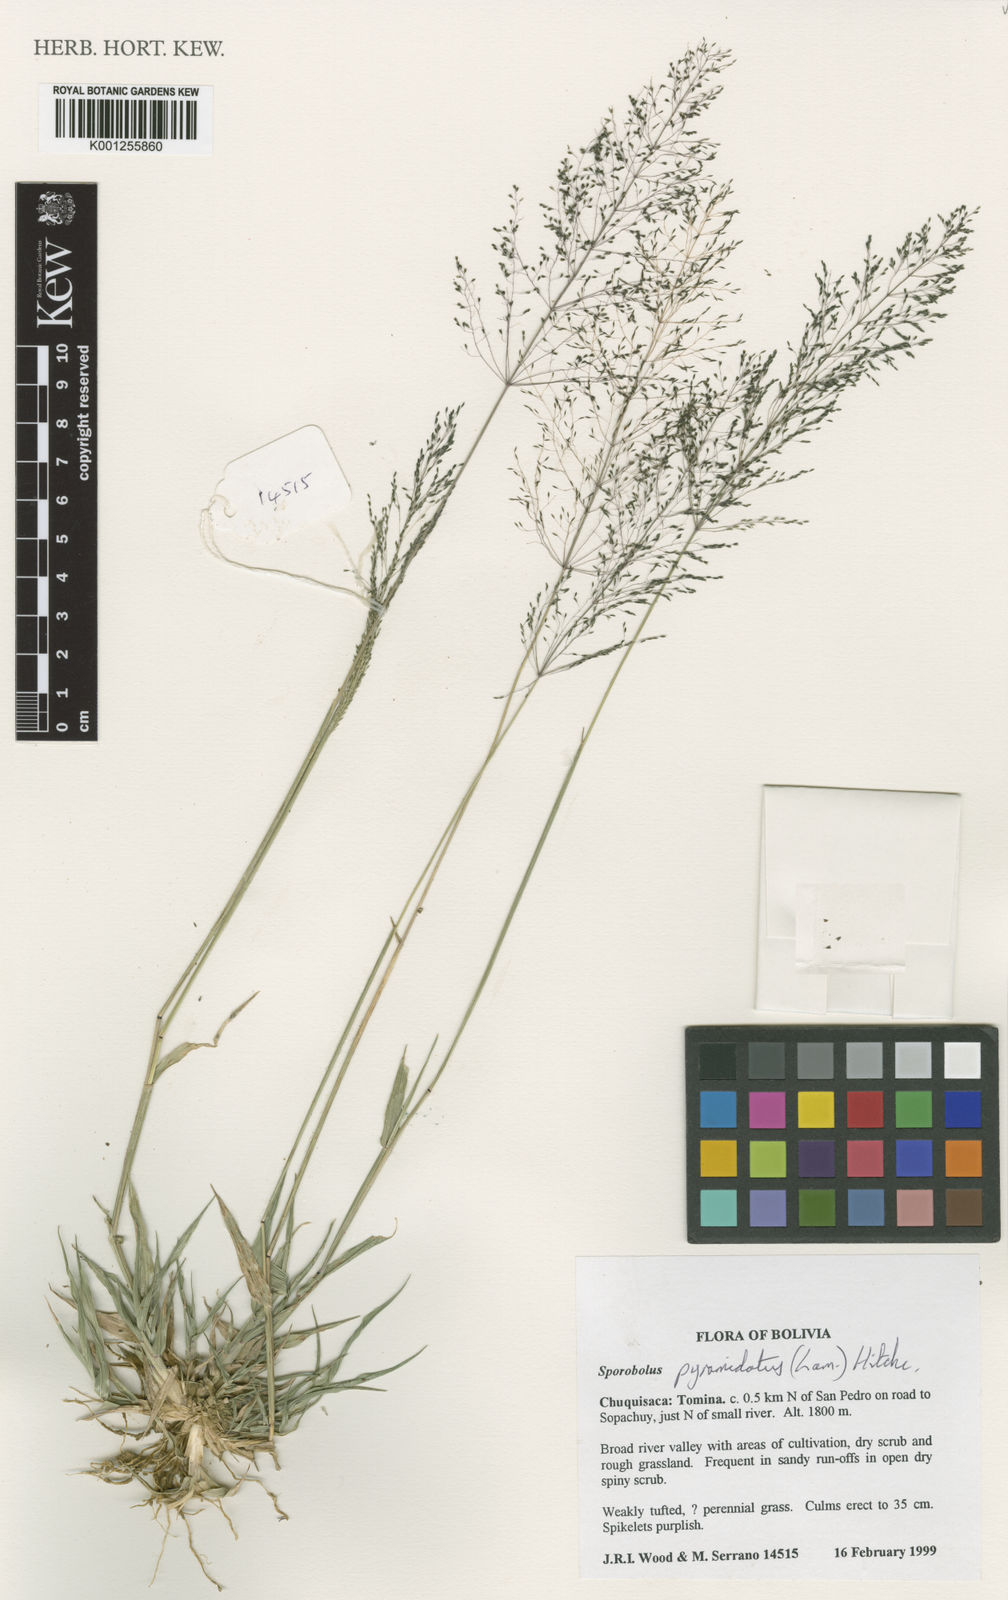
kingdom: Plantae
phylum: Tracheophyta
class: Liliopsida
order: Poales
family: Poaceae
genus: Sporobolus
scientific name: Sporobolus pyramidatus
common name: Whorled dropseed
